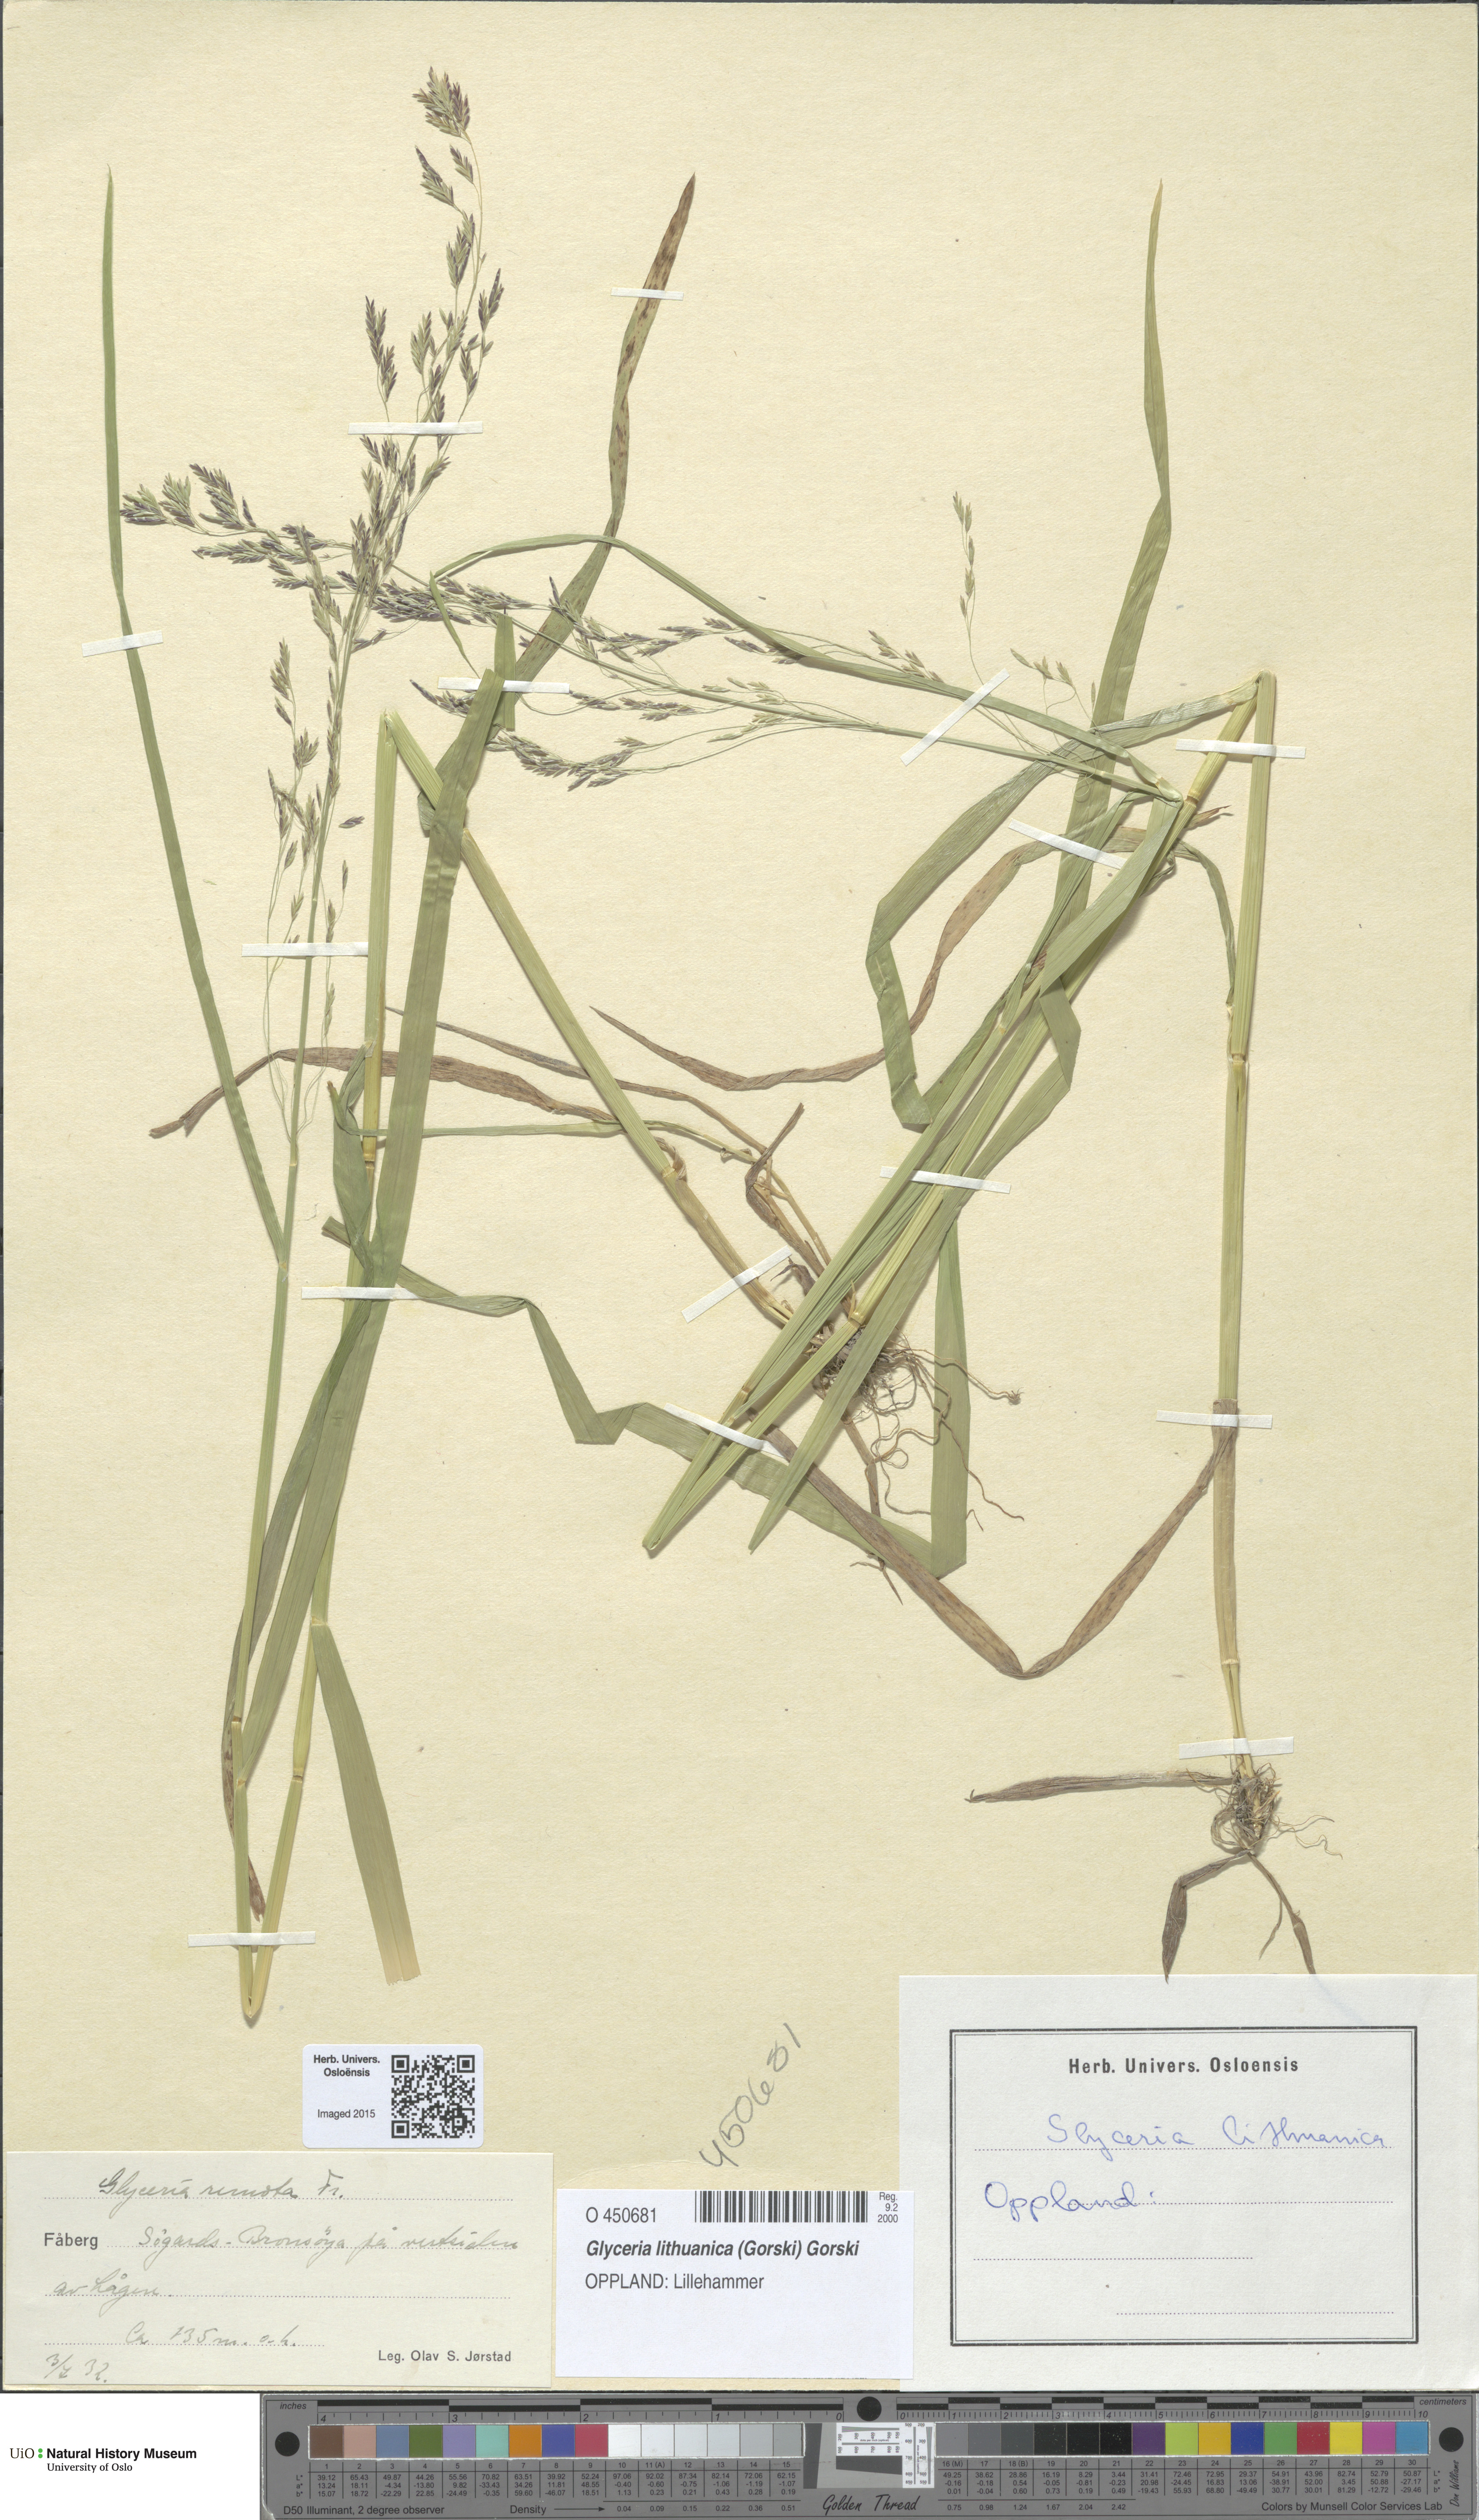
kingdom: Plantae
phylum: Tracheophyta
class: Liliopsida
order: Poales
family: Poaceae
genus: Glyceria
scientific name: Glyceria lithuanica
